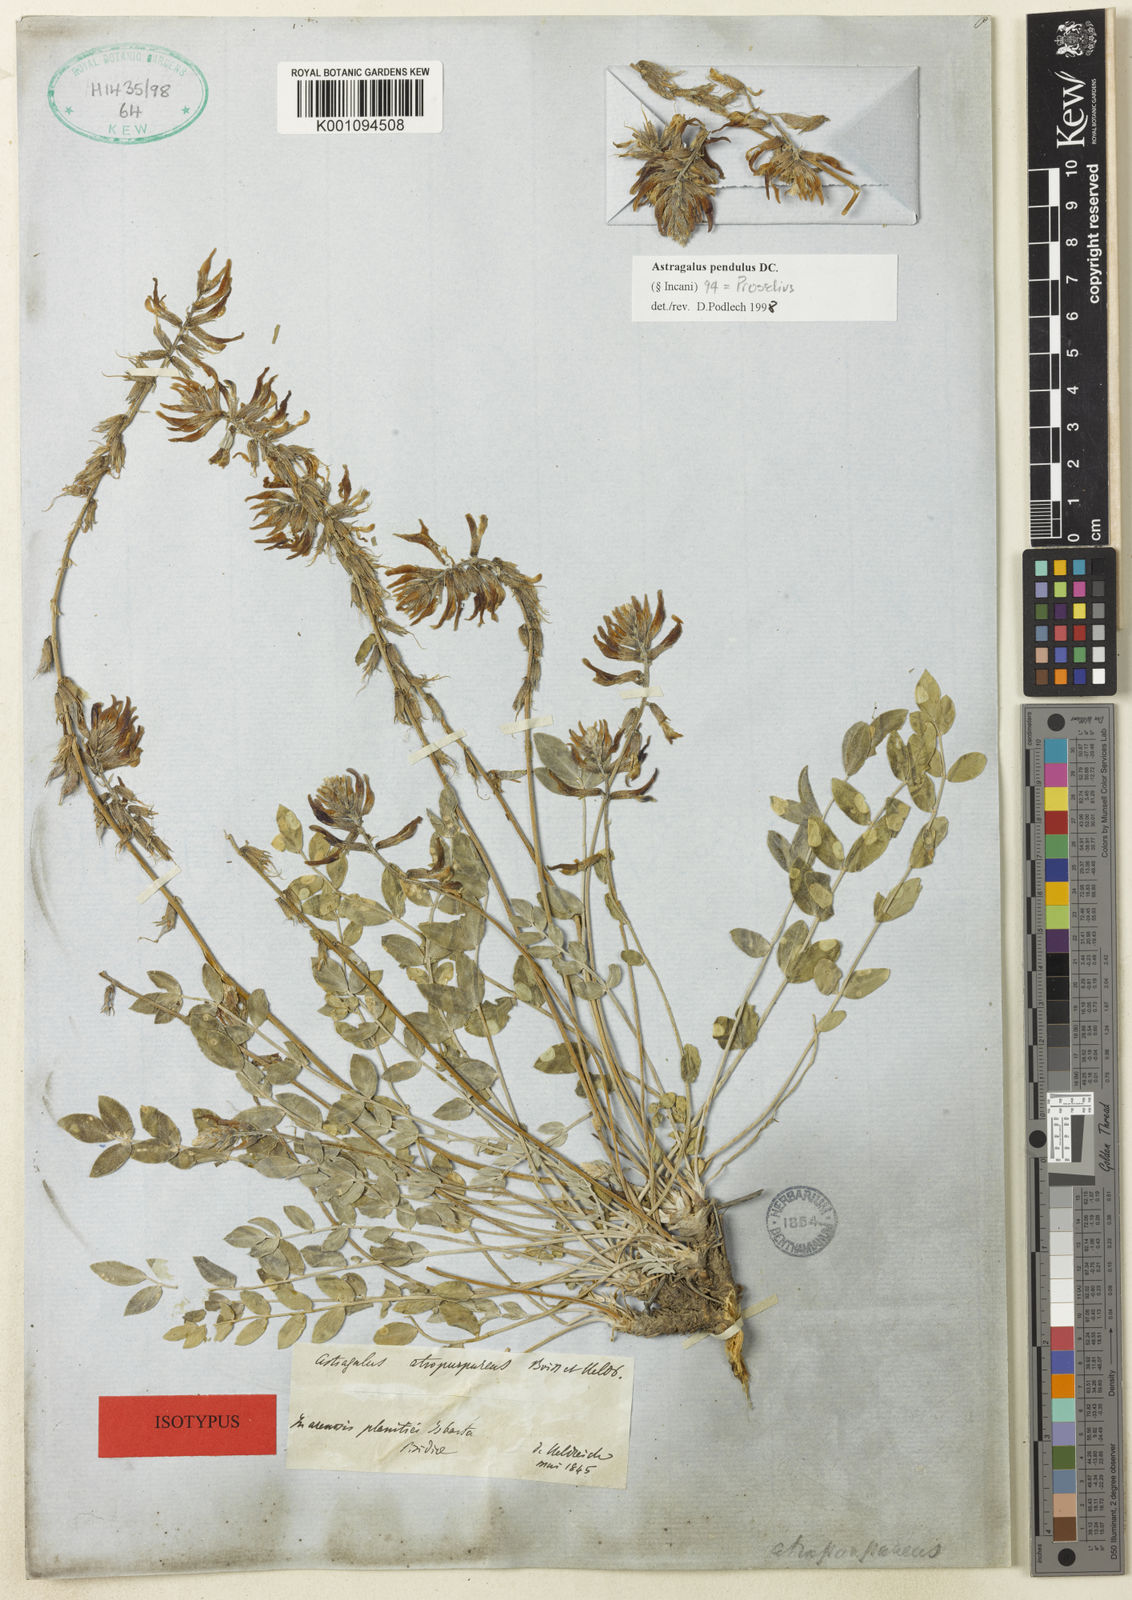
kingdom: Plantae
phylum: Tracheophyta
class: Magnoliopsida
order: Fabales
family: Fabaceae
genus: Astragalus
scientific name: Astragalus
